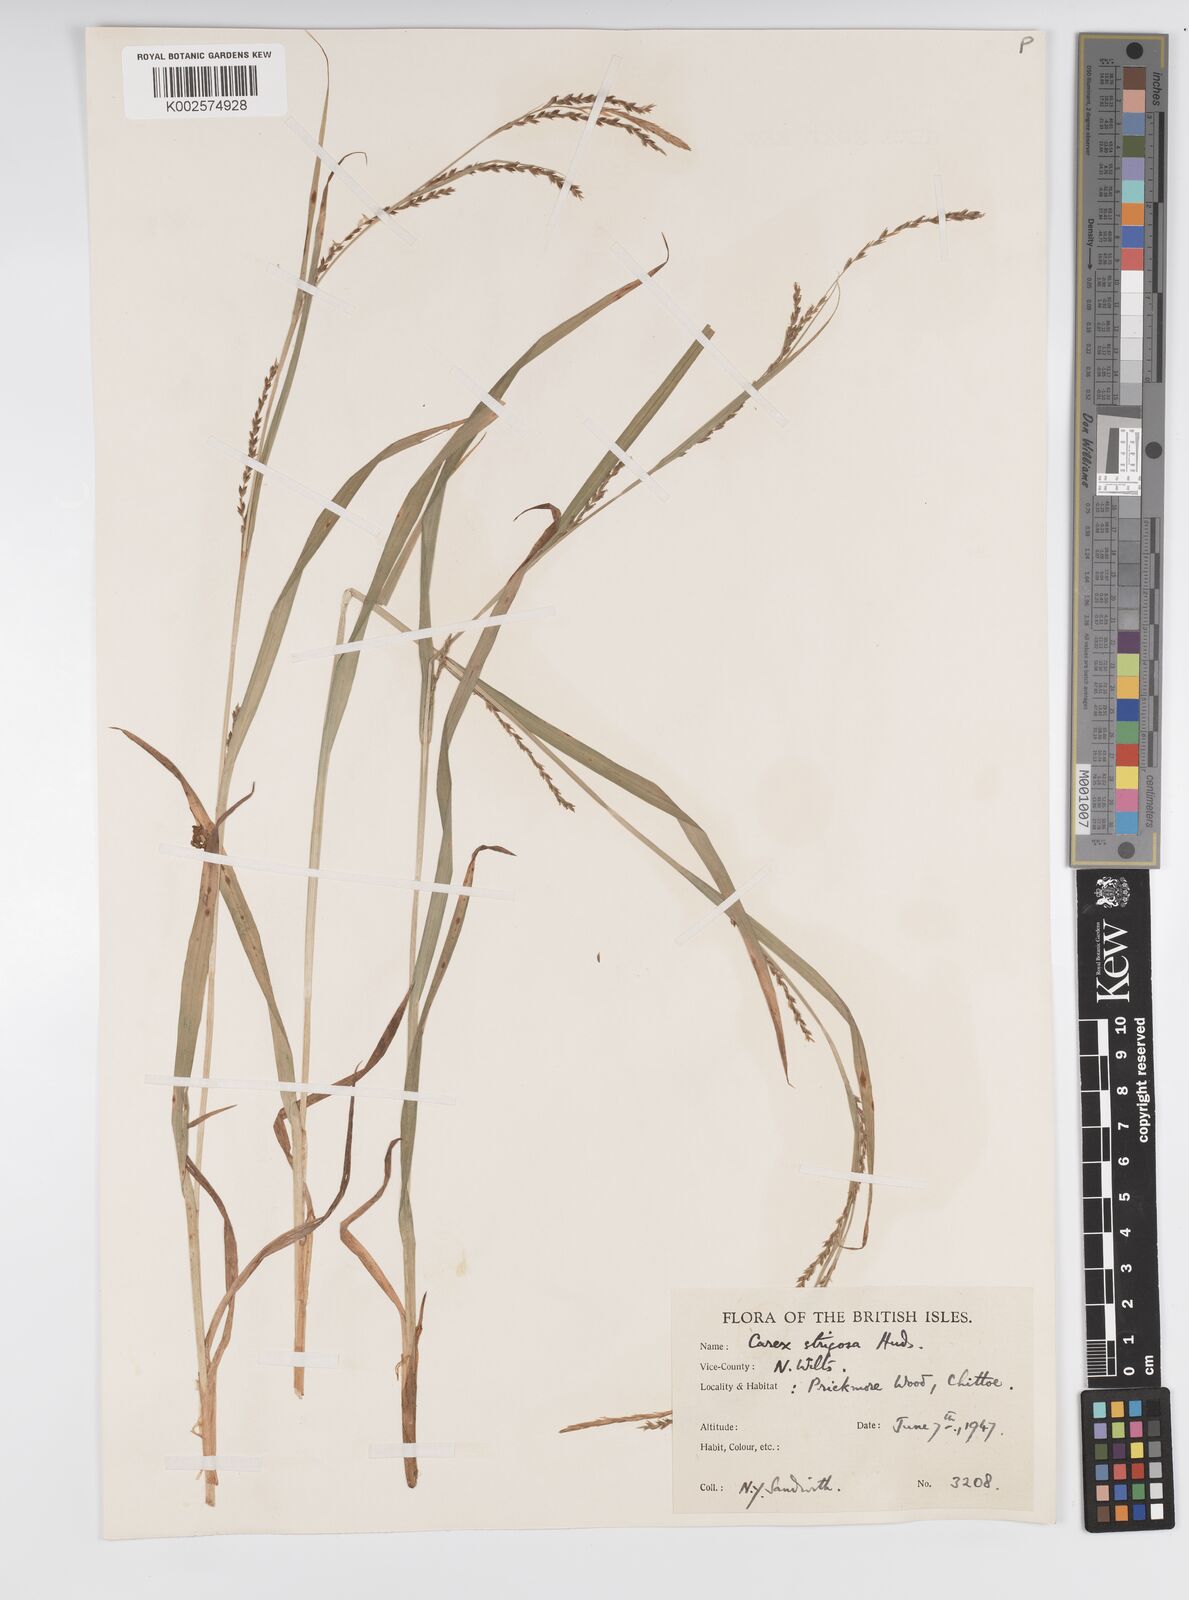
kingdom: Plantae
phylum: Tracheophyta
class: Liliopsida
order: Poales
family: Cyperaceae
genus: Carex
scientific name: Carex strigosa
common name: Thin-spiked wood-sedge
